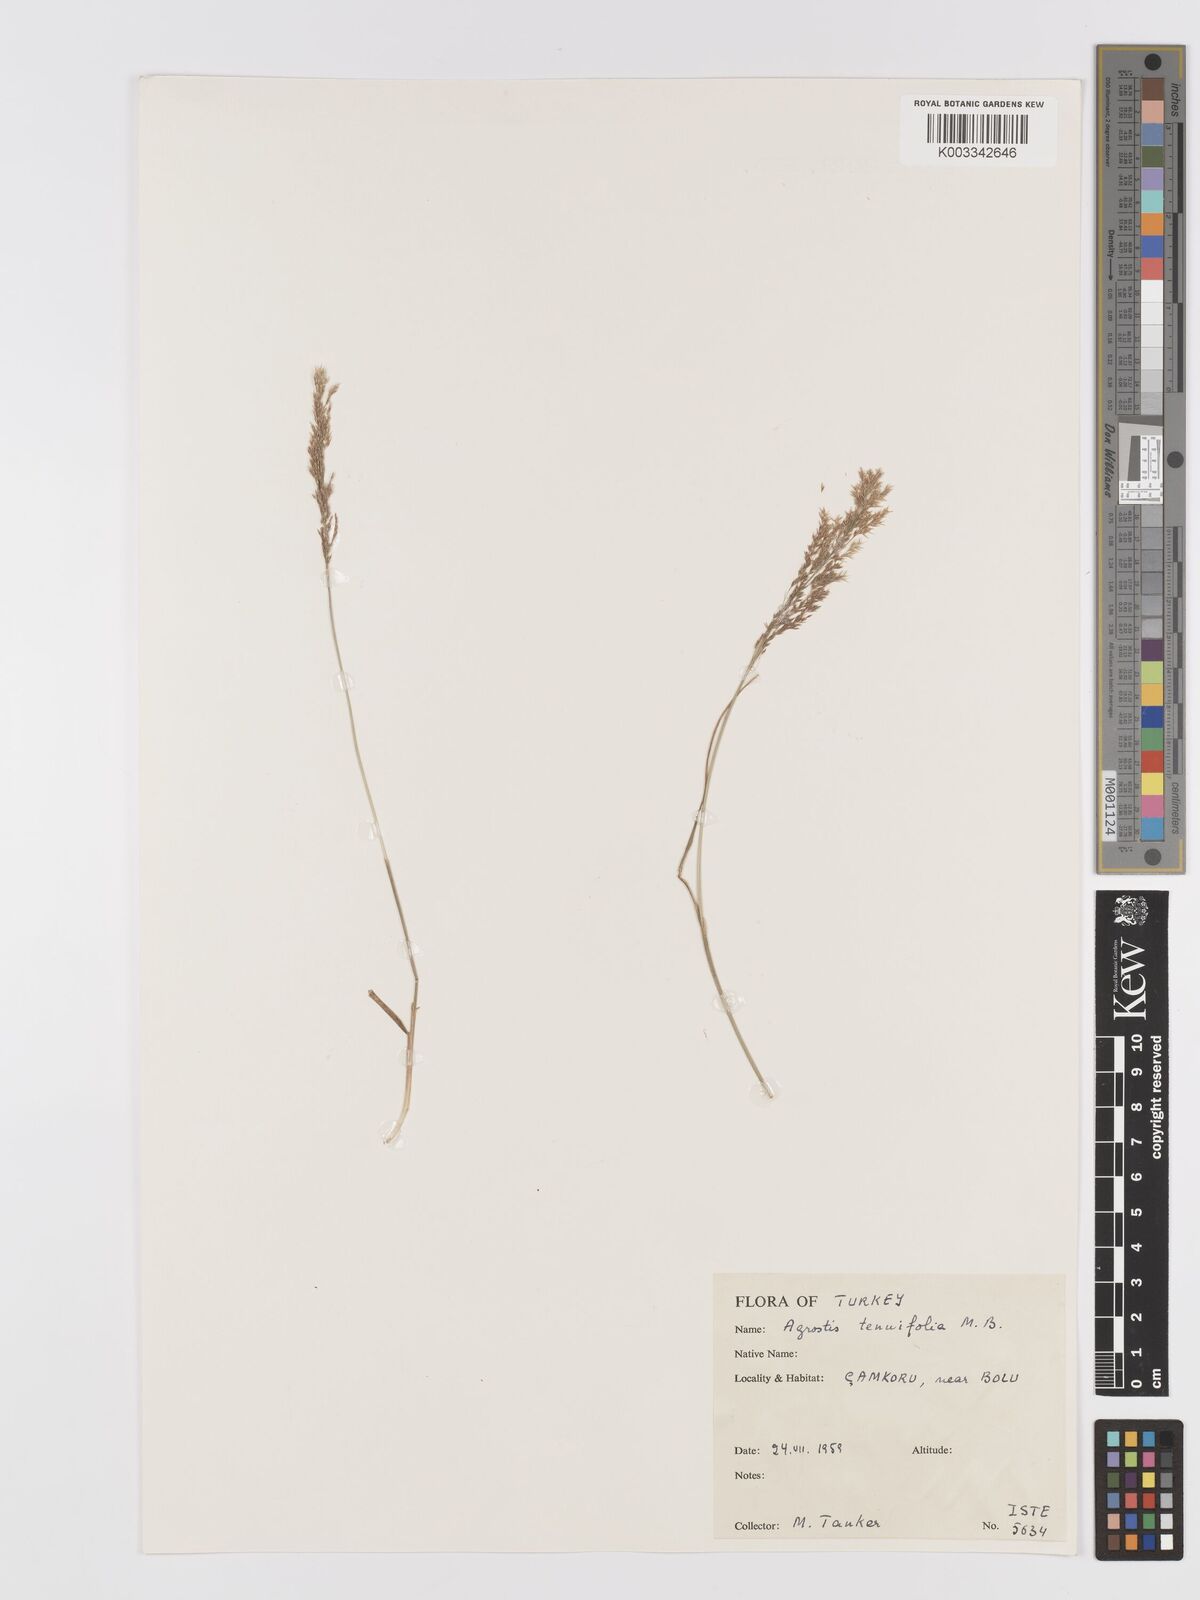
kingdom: Plantae
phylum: Tracheophyta
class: Liliopsida
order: Poales
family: Poaceae
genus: Agrostis
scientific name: Agrostis canina
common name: Velvet bent
